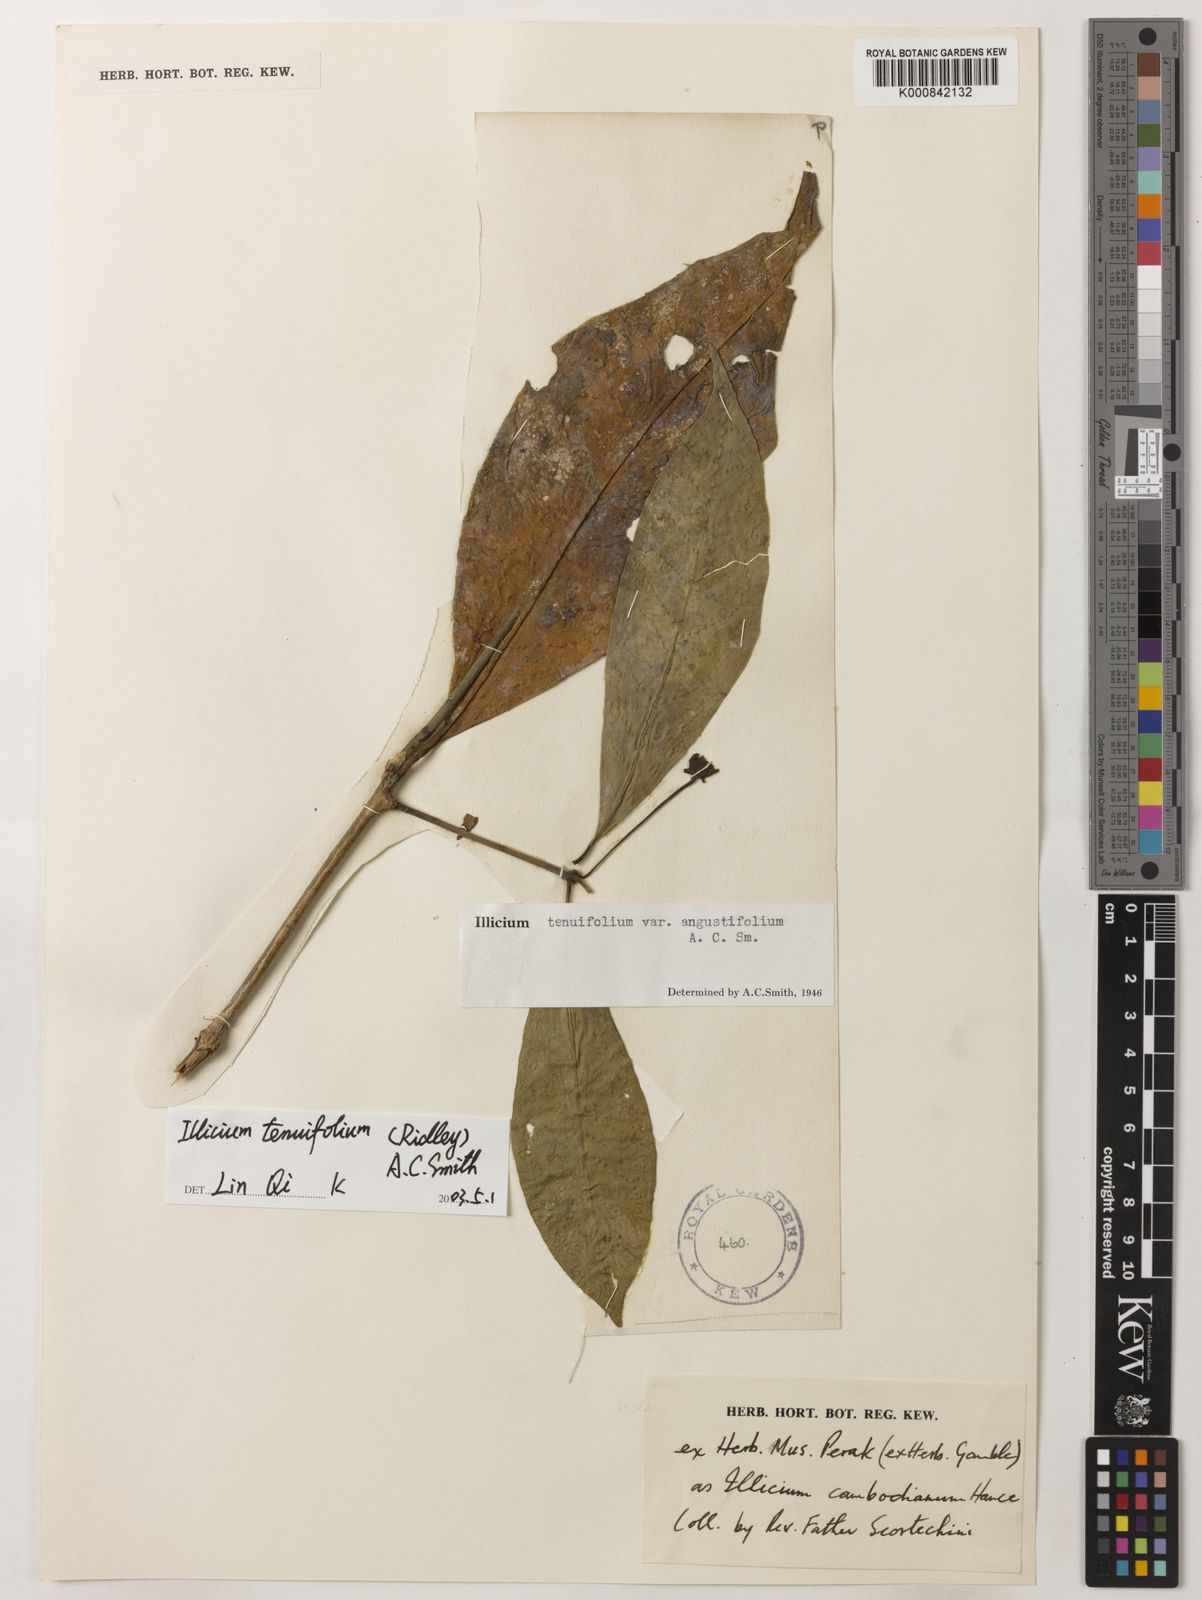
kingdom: Plantae
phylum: Tracheophyta
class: Magnoliopsida
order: Austrobaileyales
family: Schisandraceae
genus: Illicium
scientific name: Illicium tenuifolium
